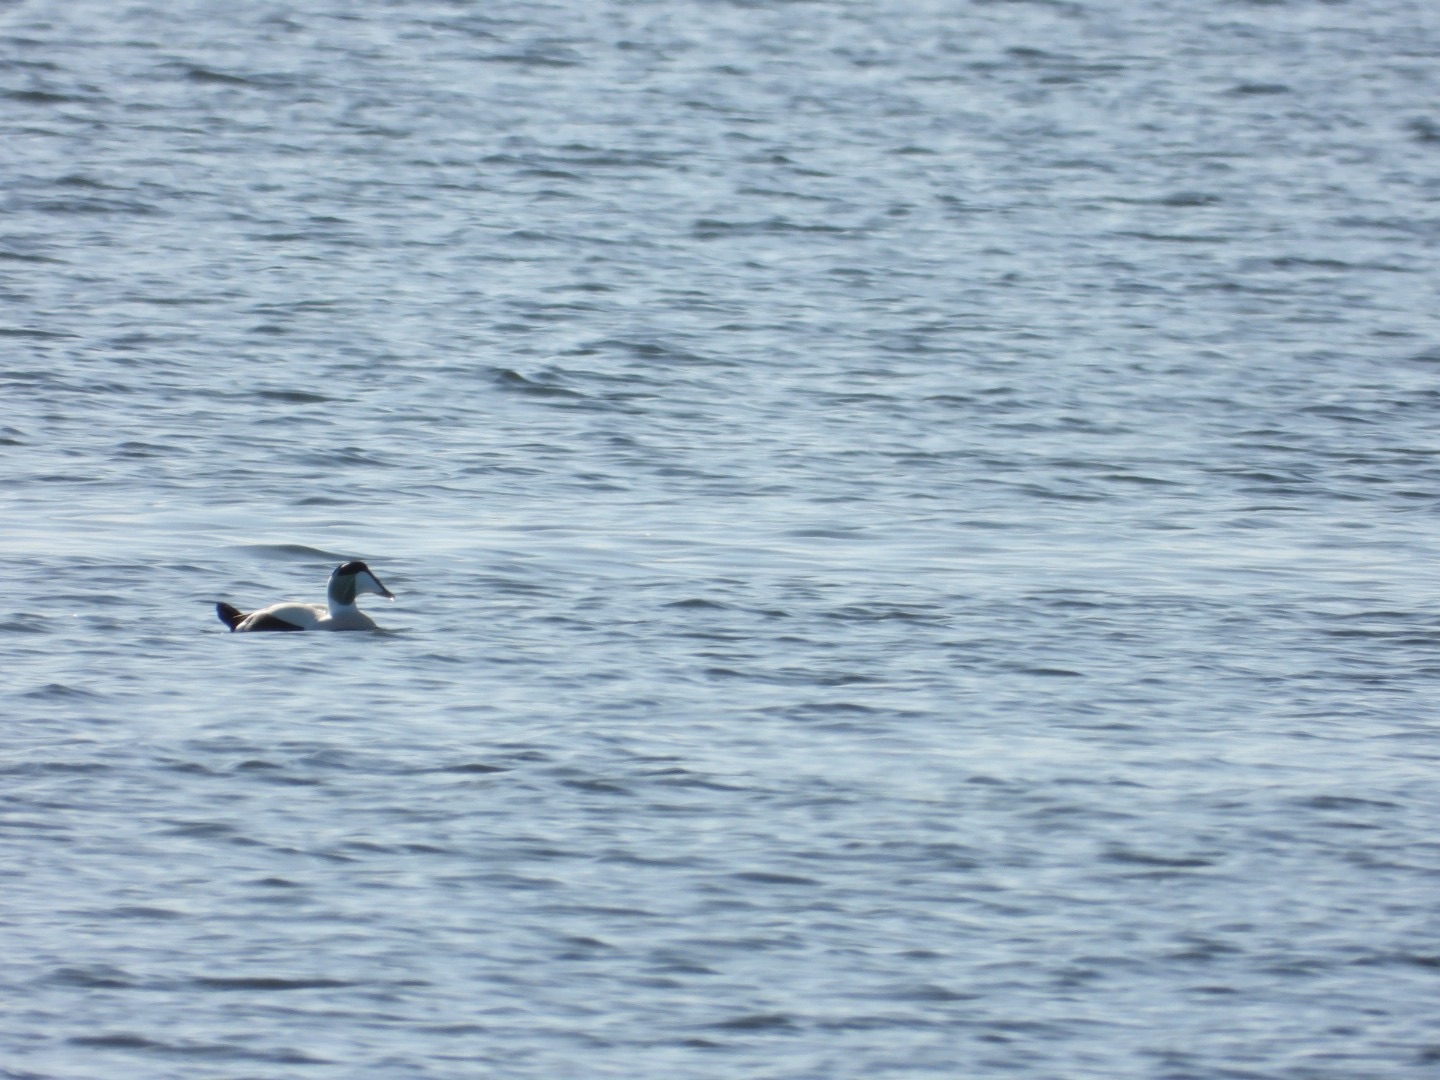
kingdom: Animalia
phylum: Chordata
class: Aves
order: Anseriformes
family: Anatidae
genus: Somateria
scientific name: Somateria mollissima
